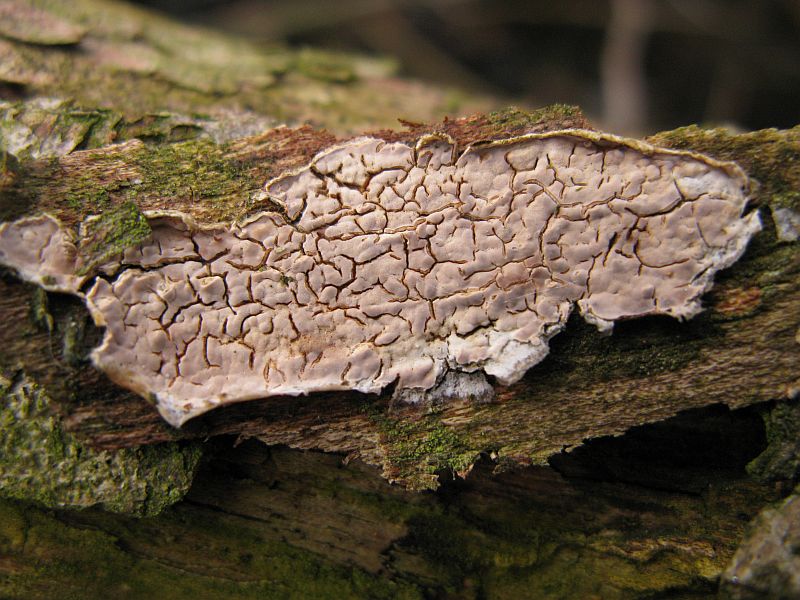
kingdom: Fungi
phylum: Basidiomycota
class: Agaricomycetes
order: Agaricales
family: Physalacriaceae
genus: Cylindrobasidium
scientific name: Cylindrobasidium evolvens
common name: sprækkehinde
